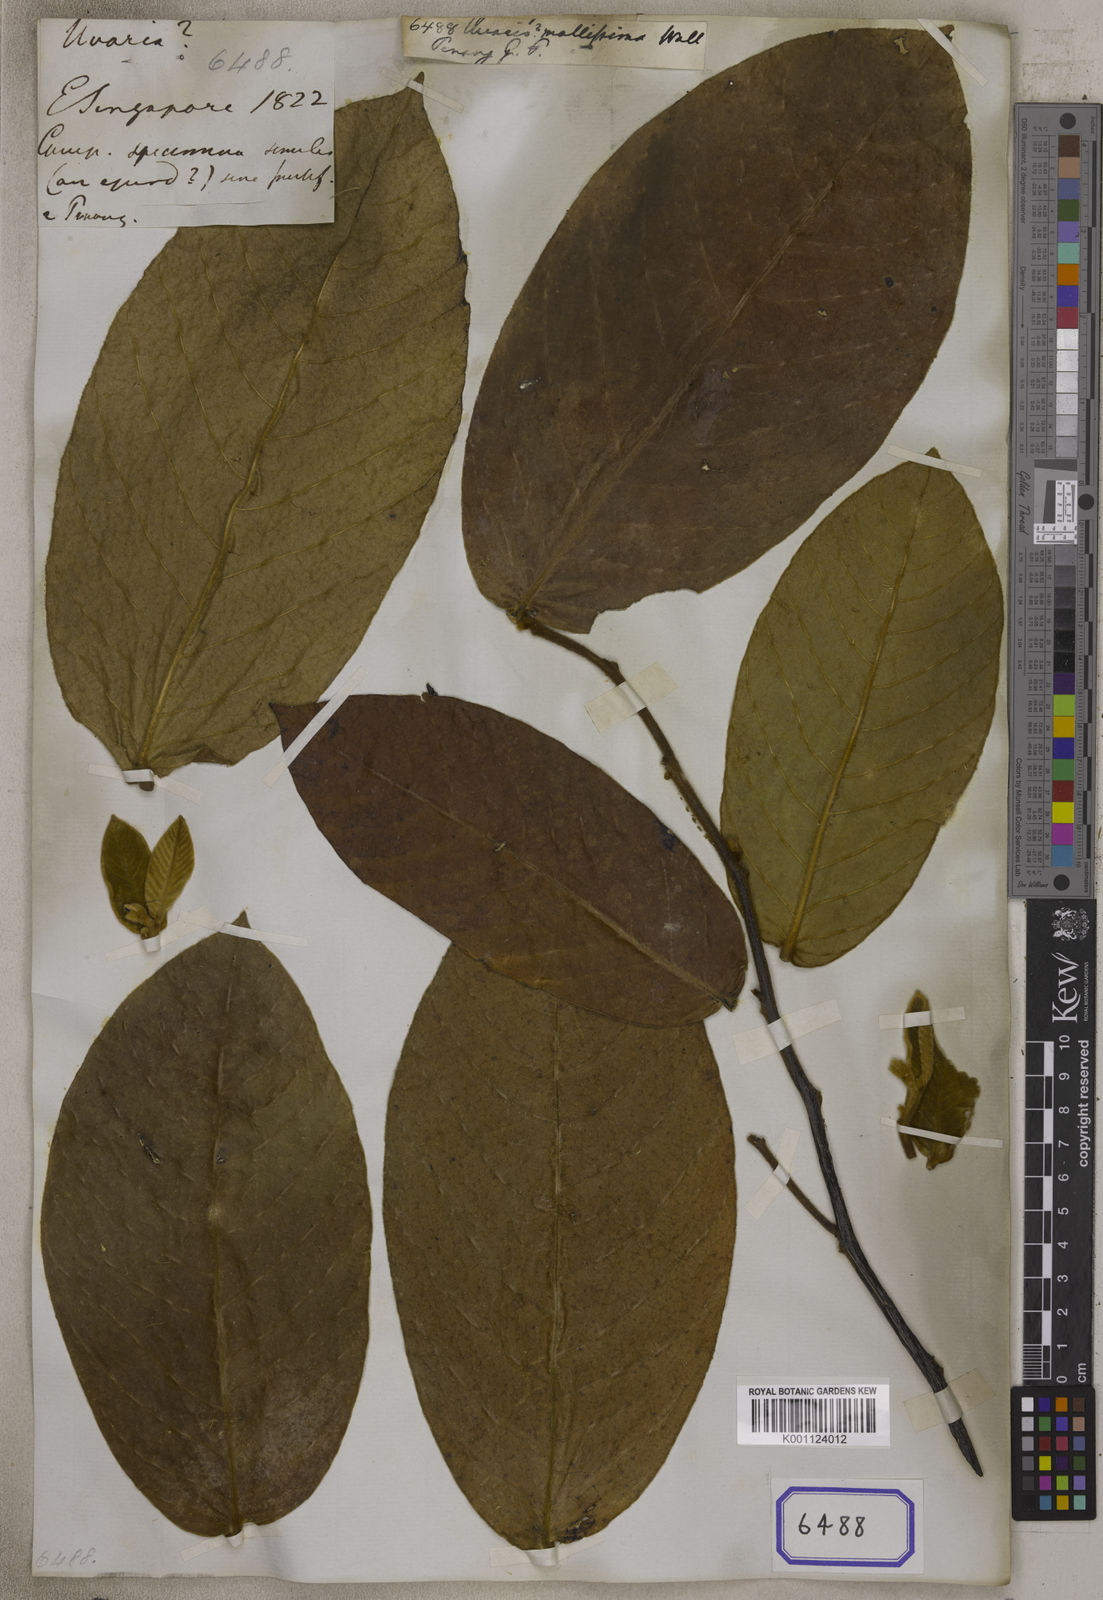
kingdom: Plantae
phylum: Tracheophyta
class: Magnoliopsida
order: Magnoliales
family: Annonaceae
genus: Uvaria
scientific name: Uvaria
